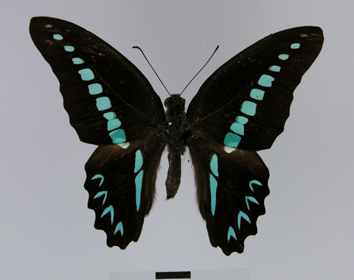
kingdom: Fungi
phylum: Ascomycota
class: Sordariomycetes
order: Microascales
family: Microascaceae
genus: Graphium
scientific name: Graphium sarpedon
